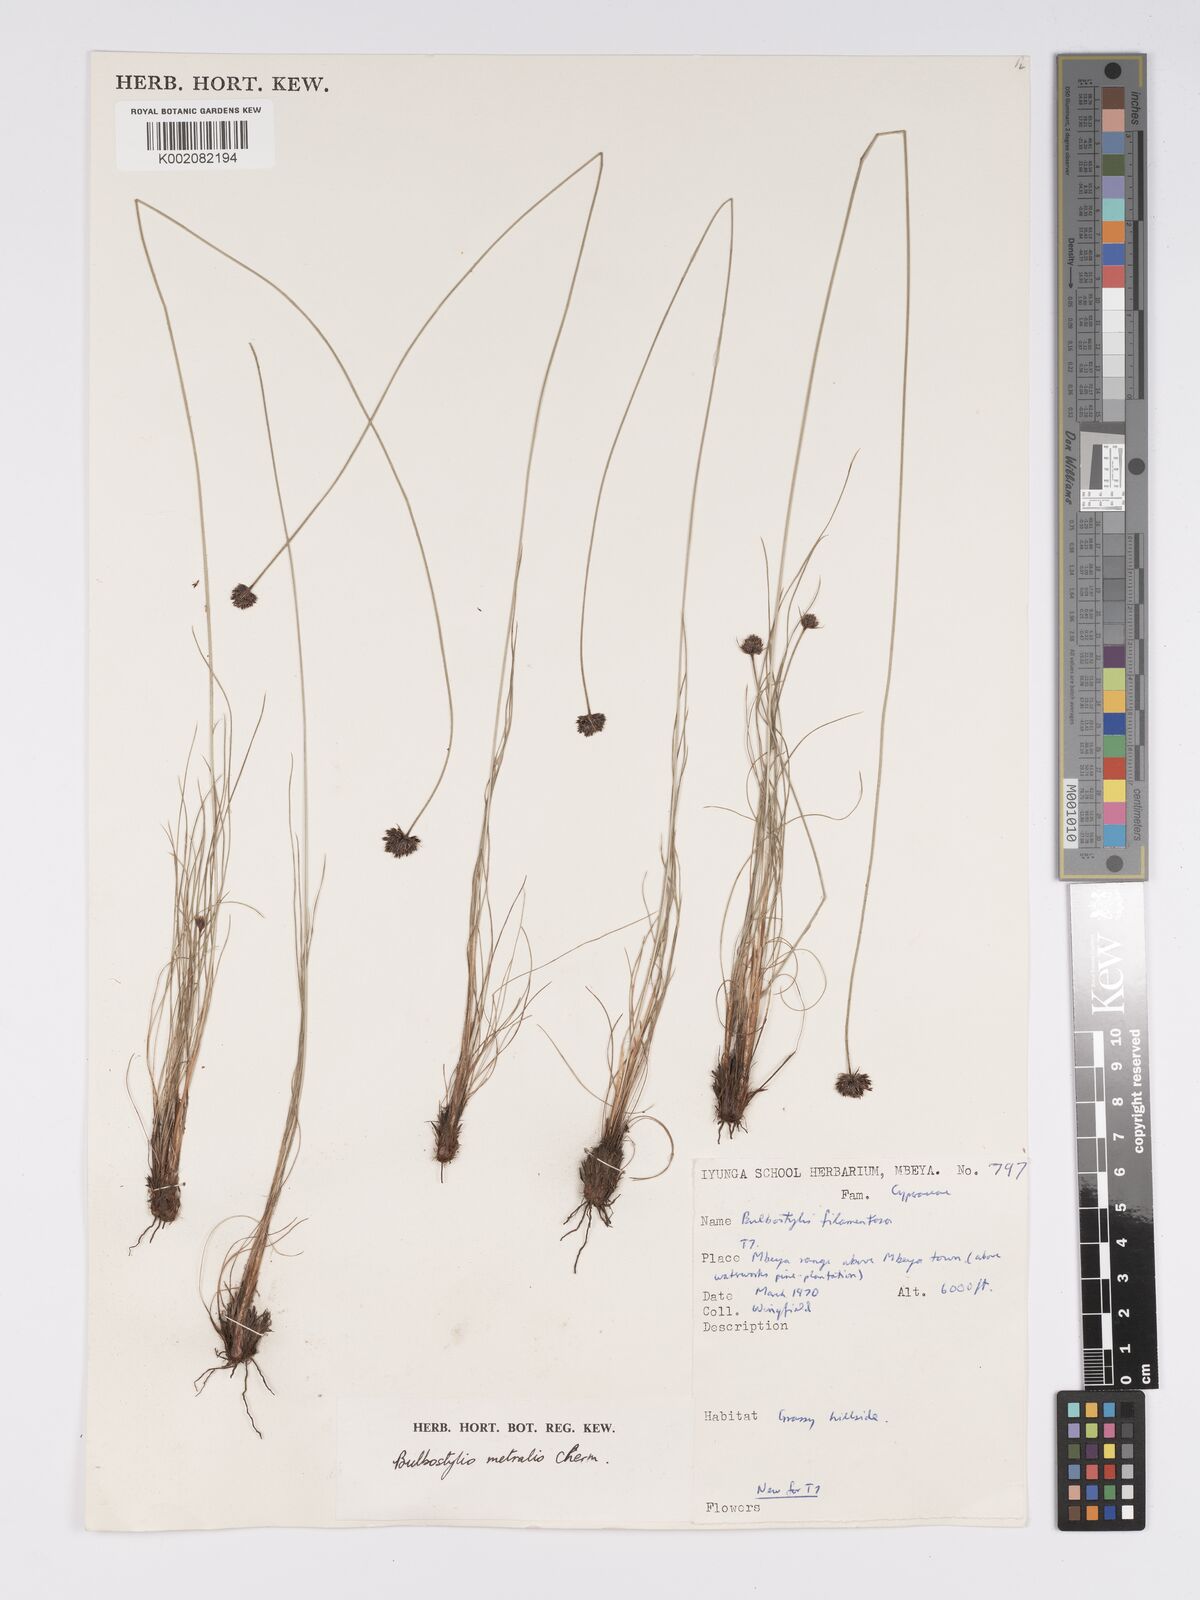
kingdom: Plantae
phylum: Tracheophyta
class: Liliopsida
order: Poales
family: Cyperaceae
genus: Bulbostylis
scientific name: Bulbostylis filamentosa
